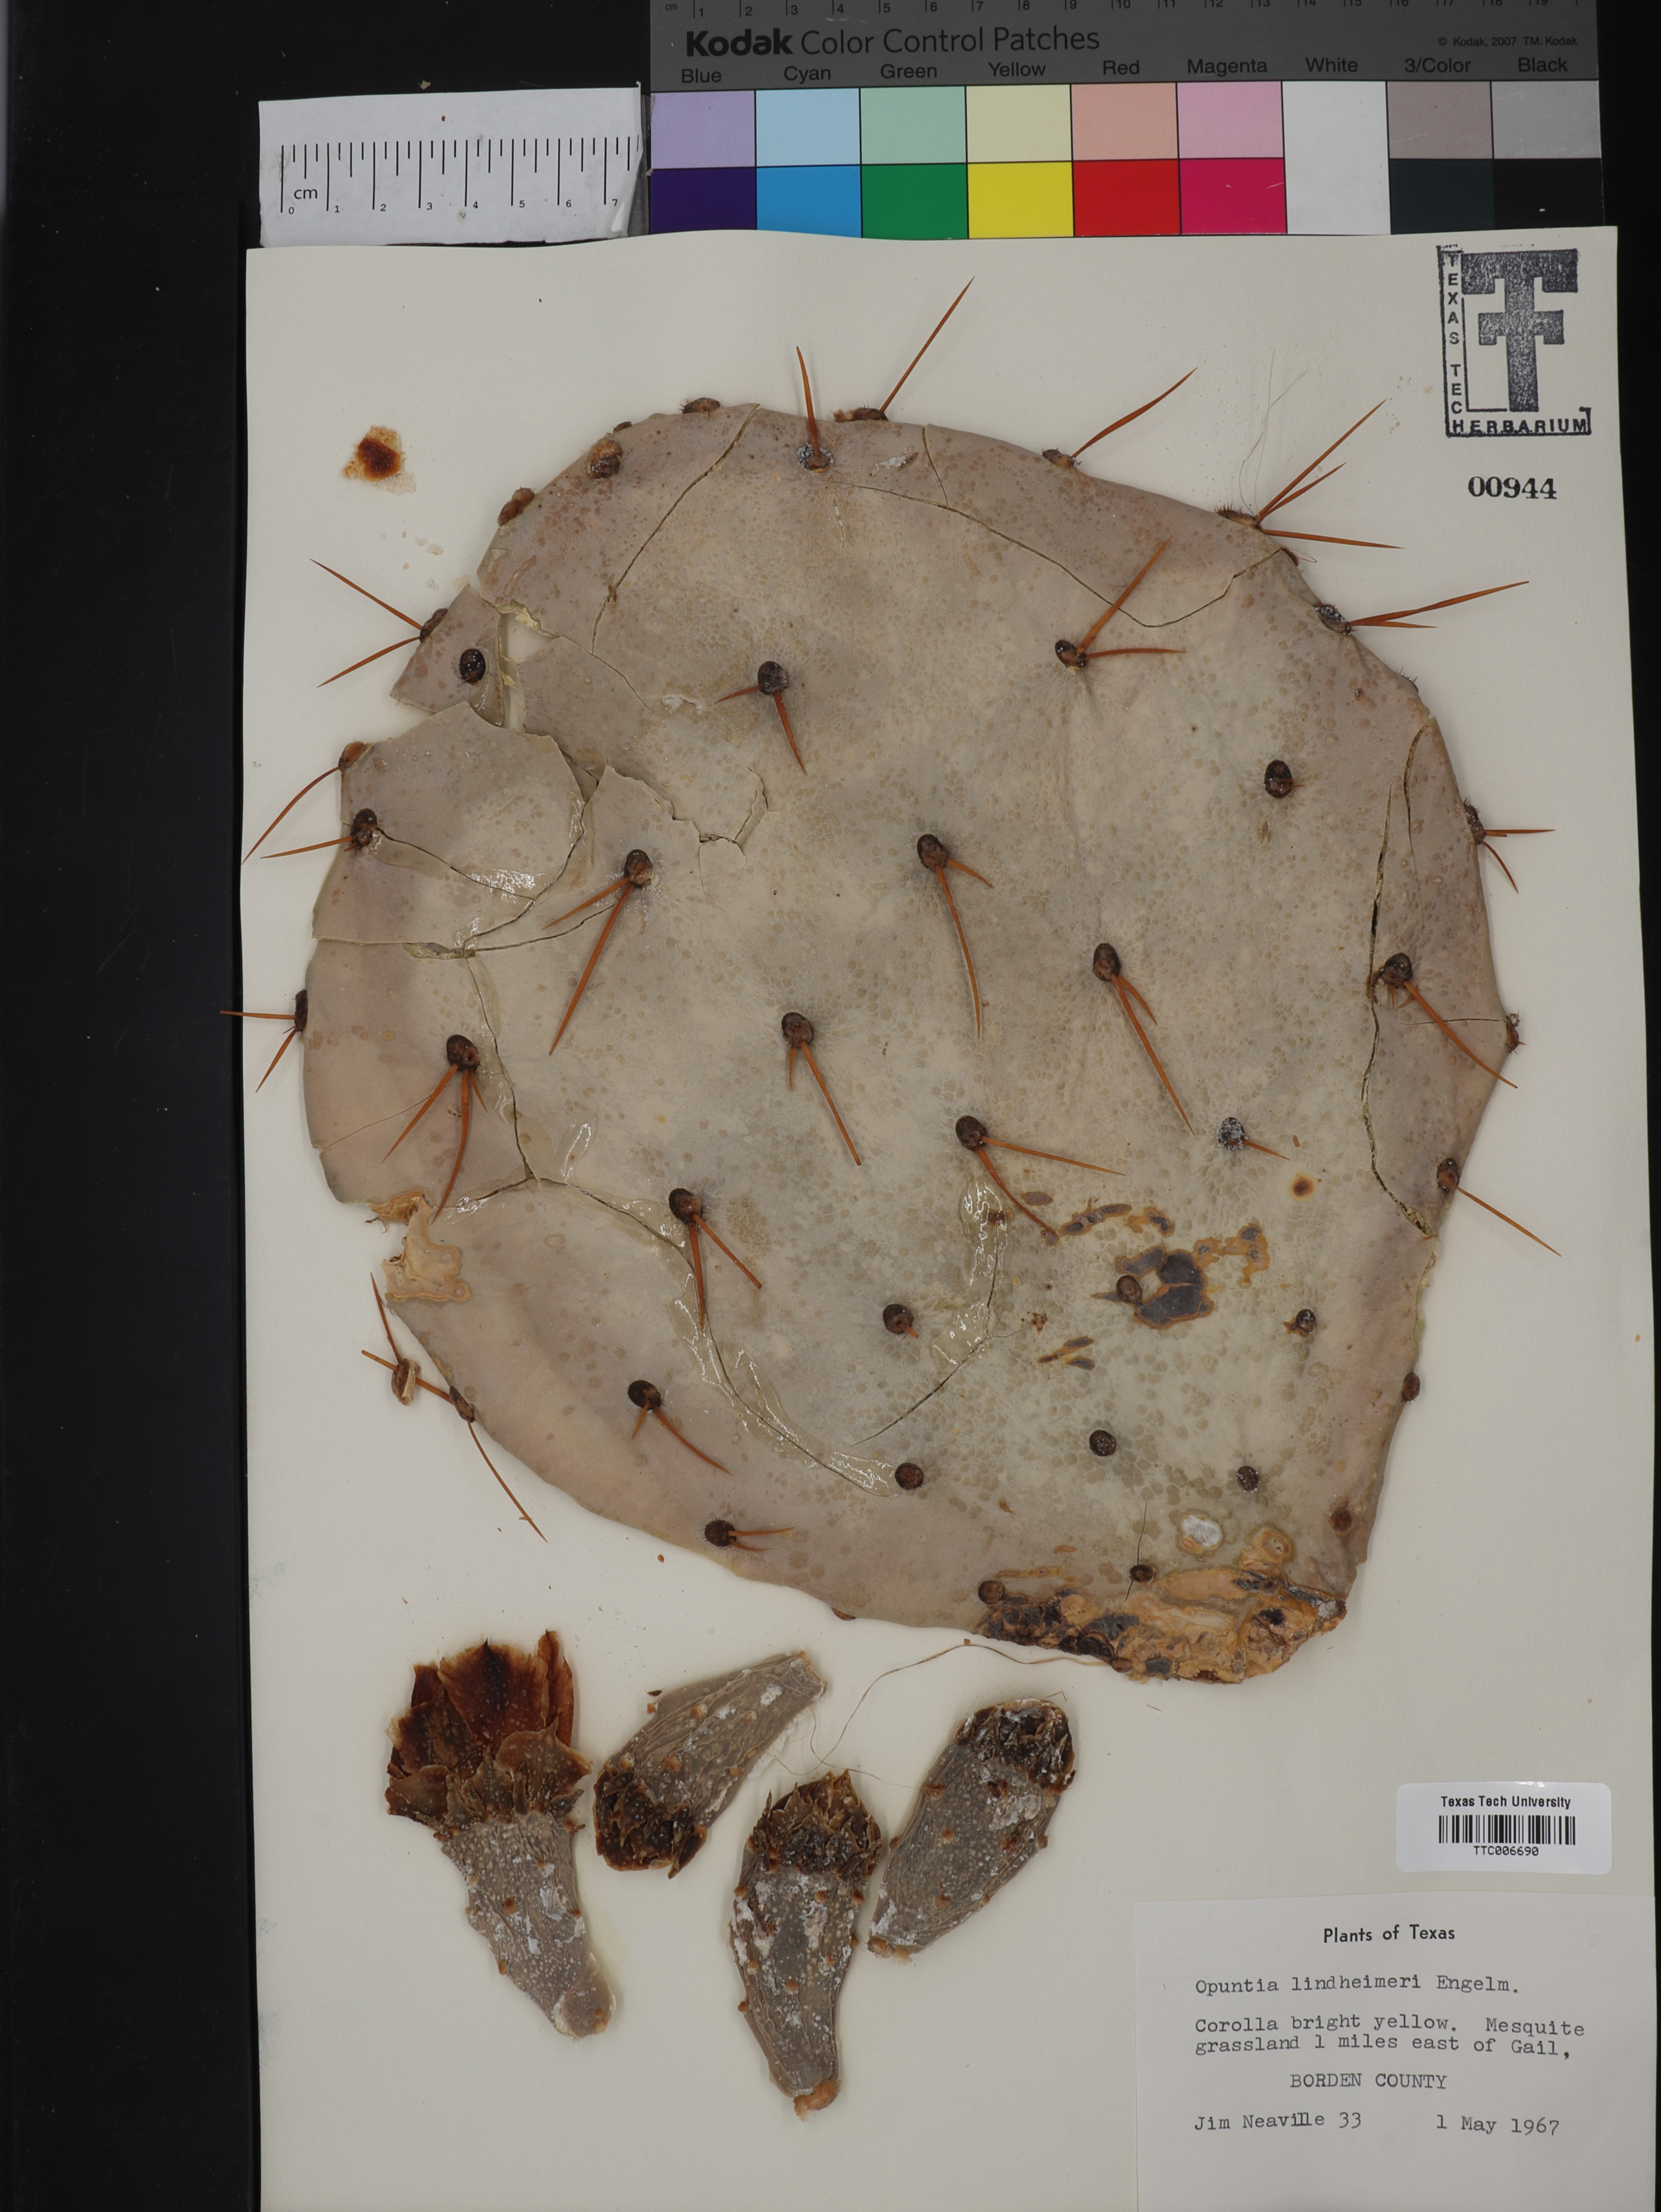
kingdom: Plantae
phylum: Tracheophyta
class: Magnoliopsida
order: Caryophyllales
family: Cactaceae
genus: Opuntia
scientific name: Opuntia engelmannii
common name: Cactus-apple
